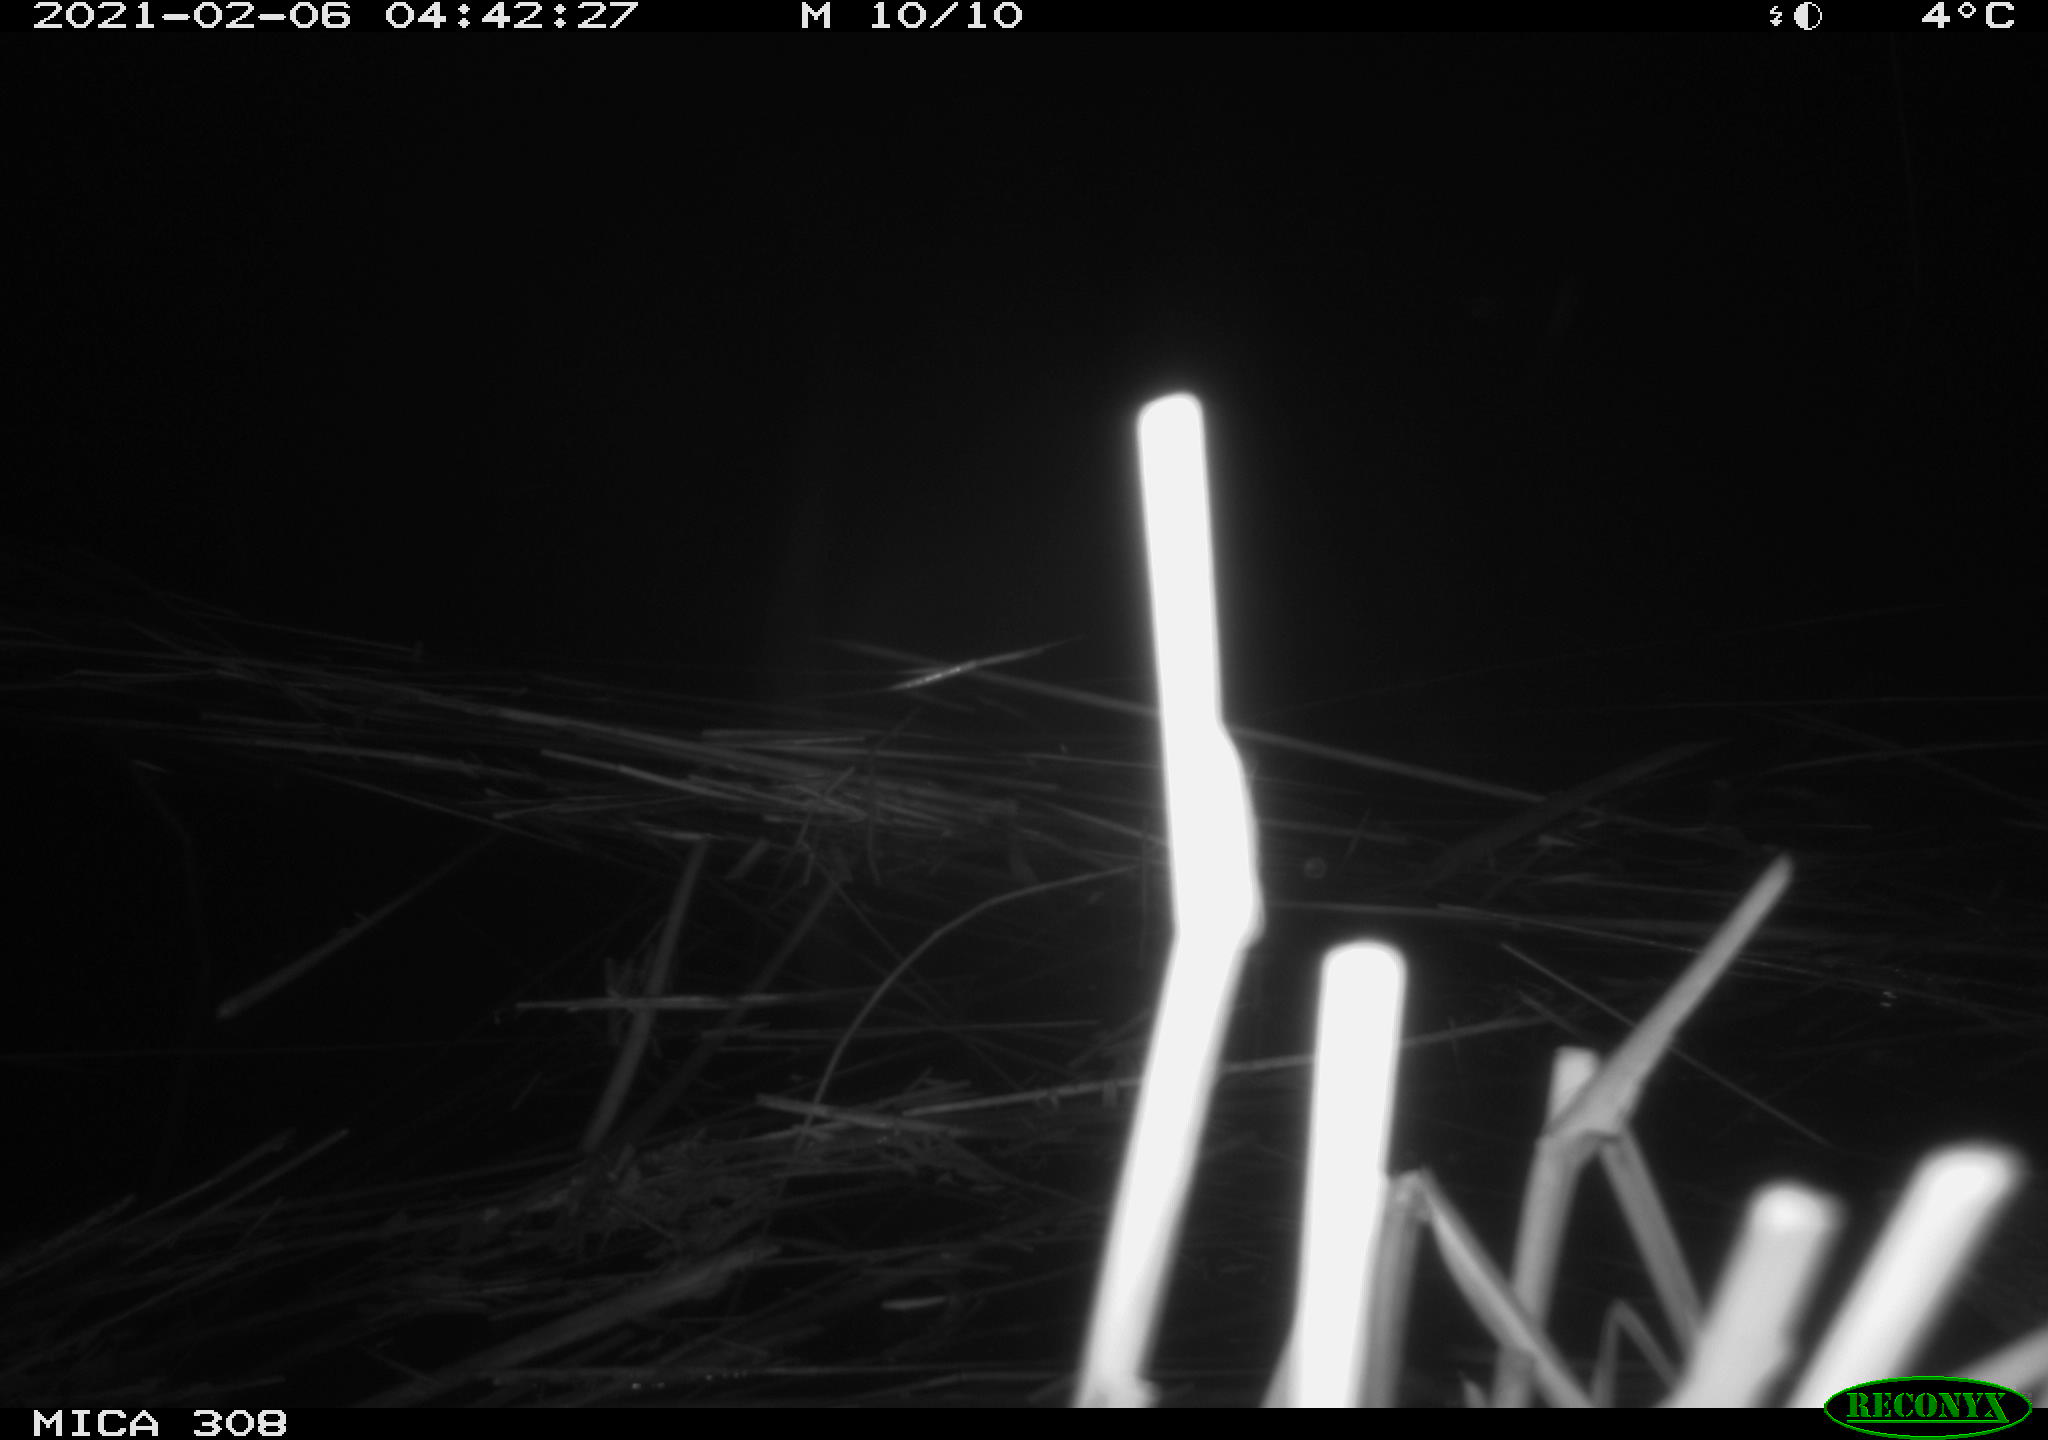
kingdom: Animalia
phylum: Chordata
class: Aves
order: Anseriformes
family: Anatidae
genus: Anas
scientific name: Anas platyrhynchos
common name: Mallard
